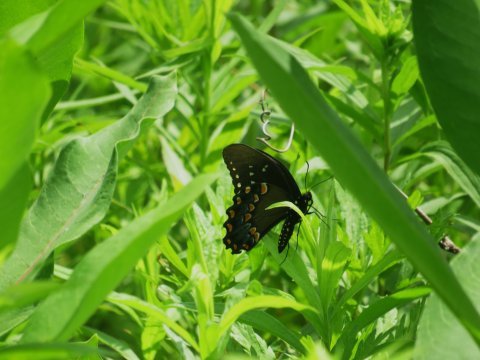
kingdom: Animalia
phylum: Arthropoda
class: Insecta
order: Lepidoptera
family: Papilionidae
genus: Pterourus
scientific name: Pterourus troilus
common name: Spicebush Swallowtail
